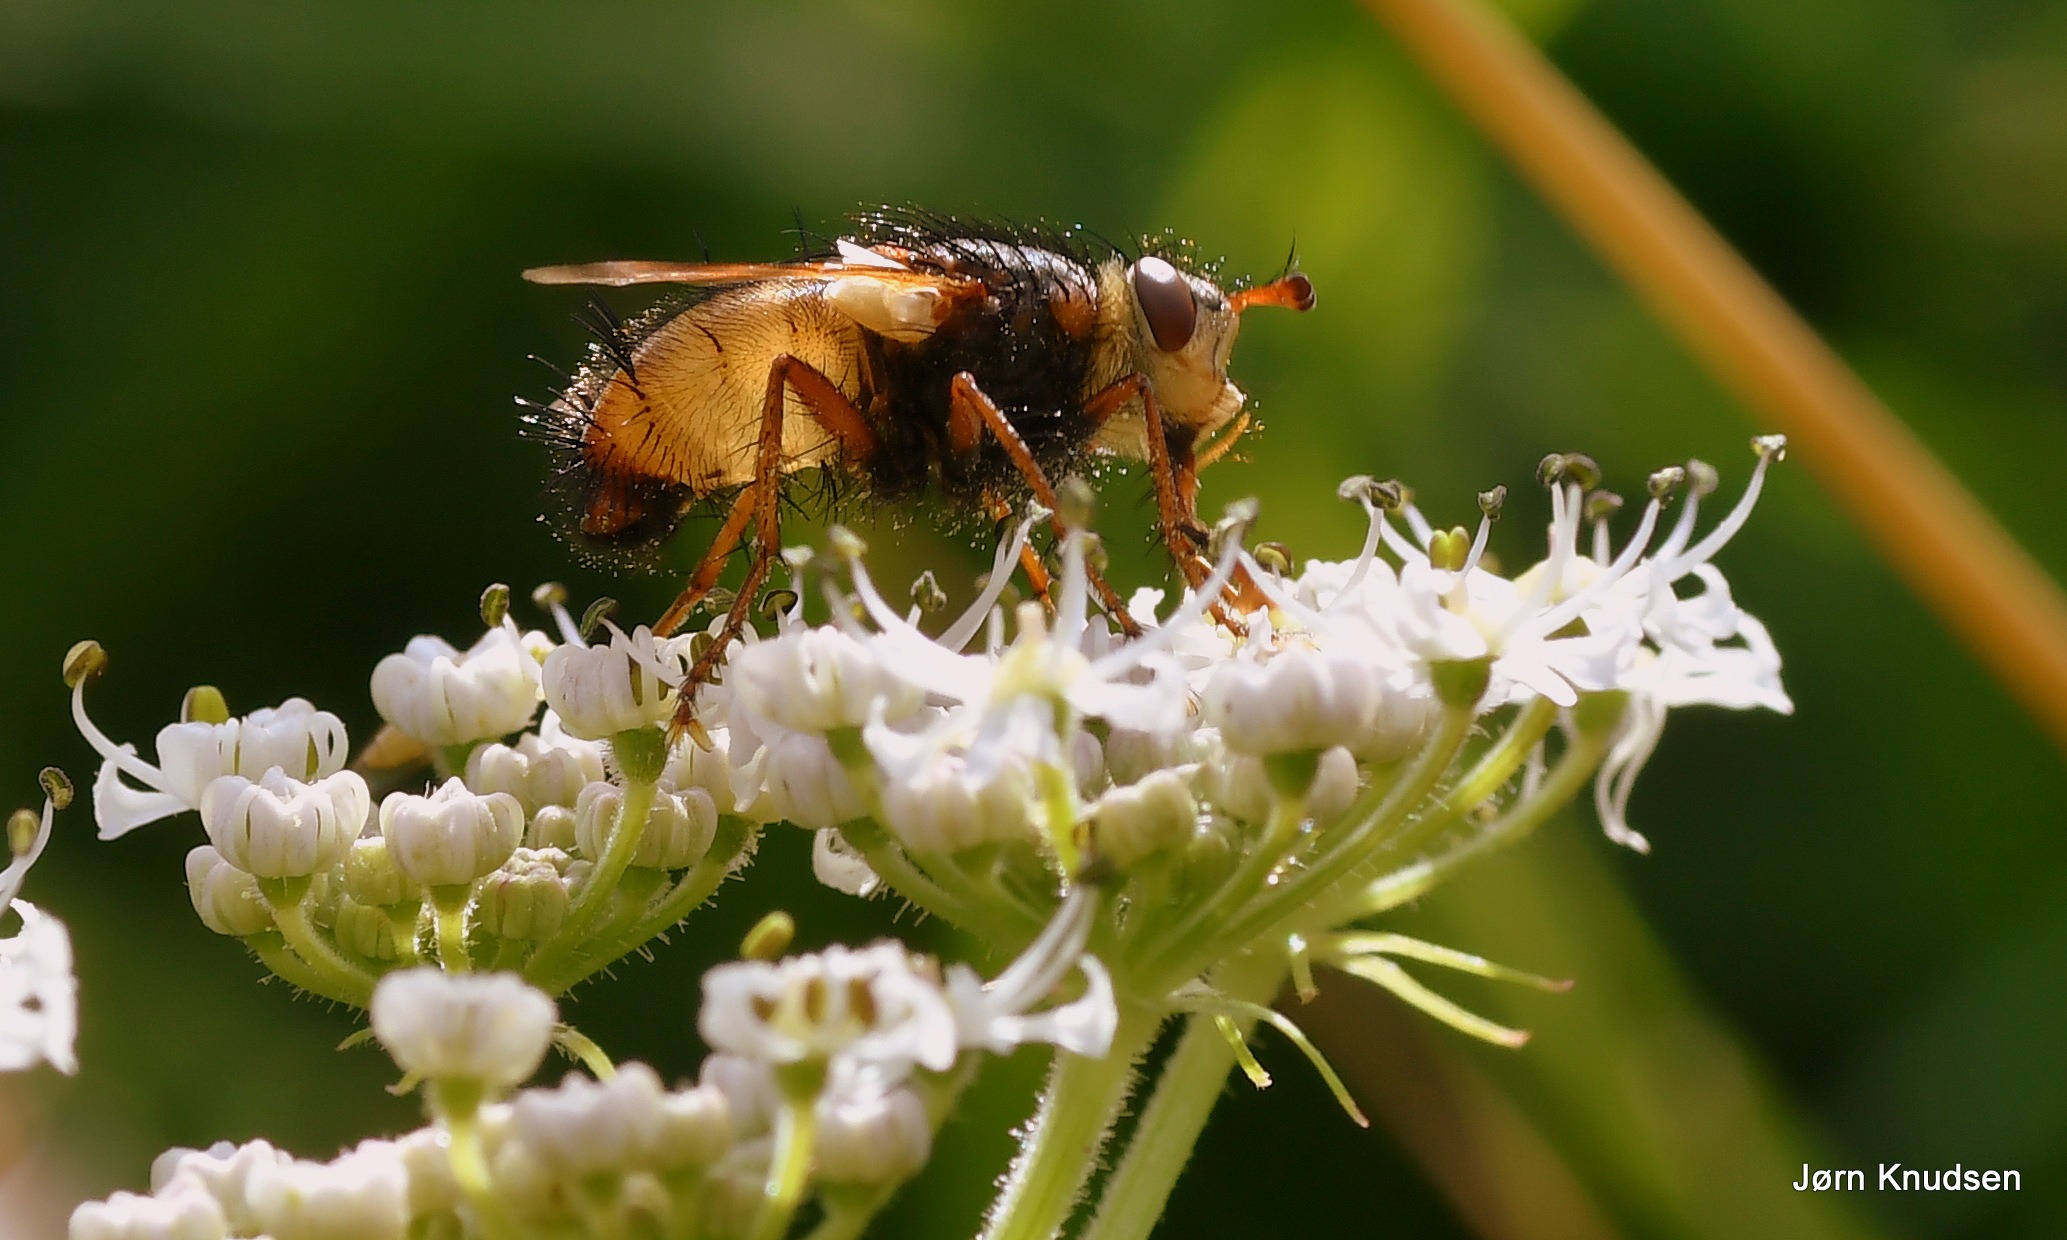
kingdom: Animalia
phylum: Arthropoda
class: Insecta
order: Diptera
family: Tachinidae
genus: Tachina
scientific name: Tachina fera
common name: Mellemfluen oskar
